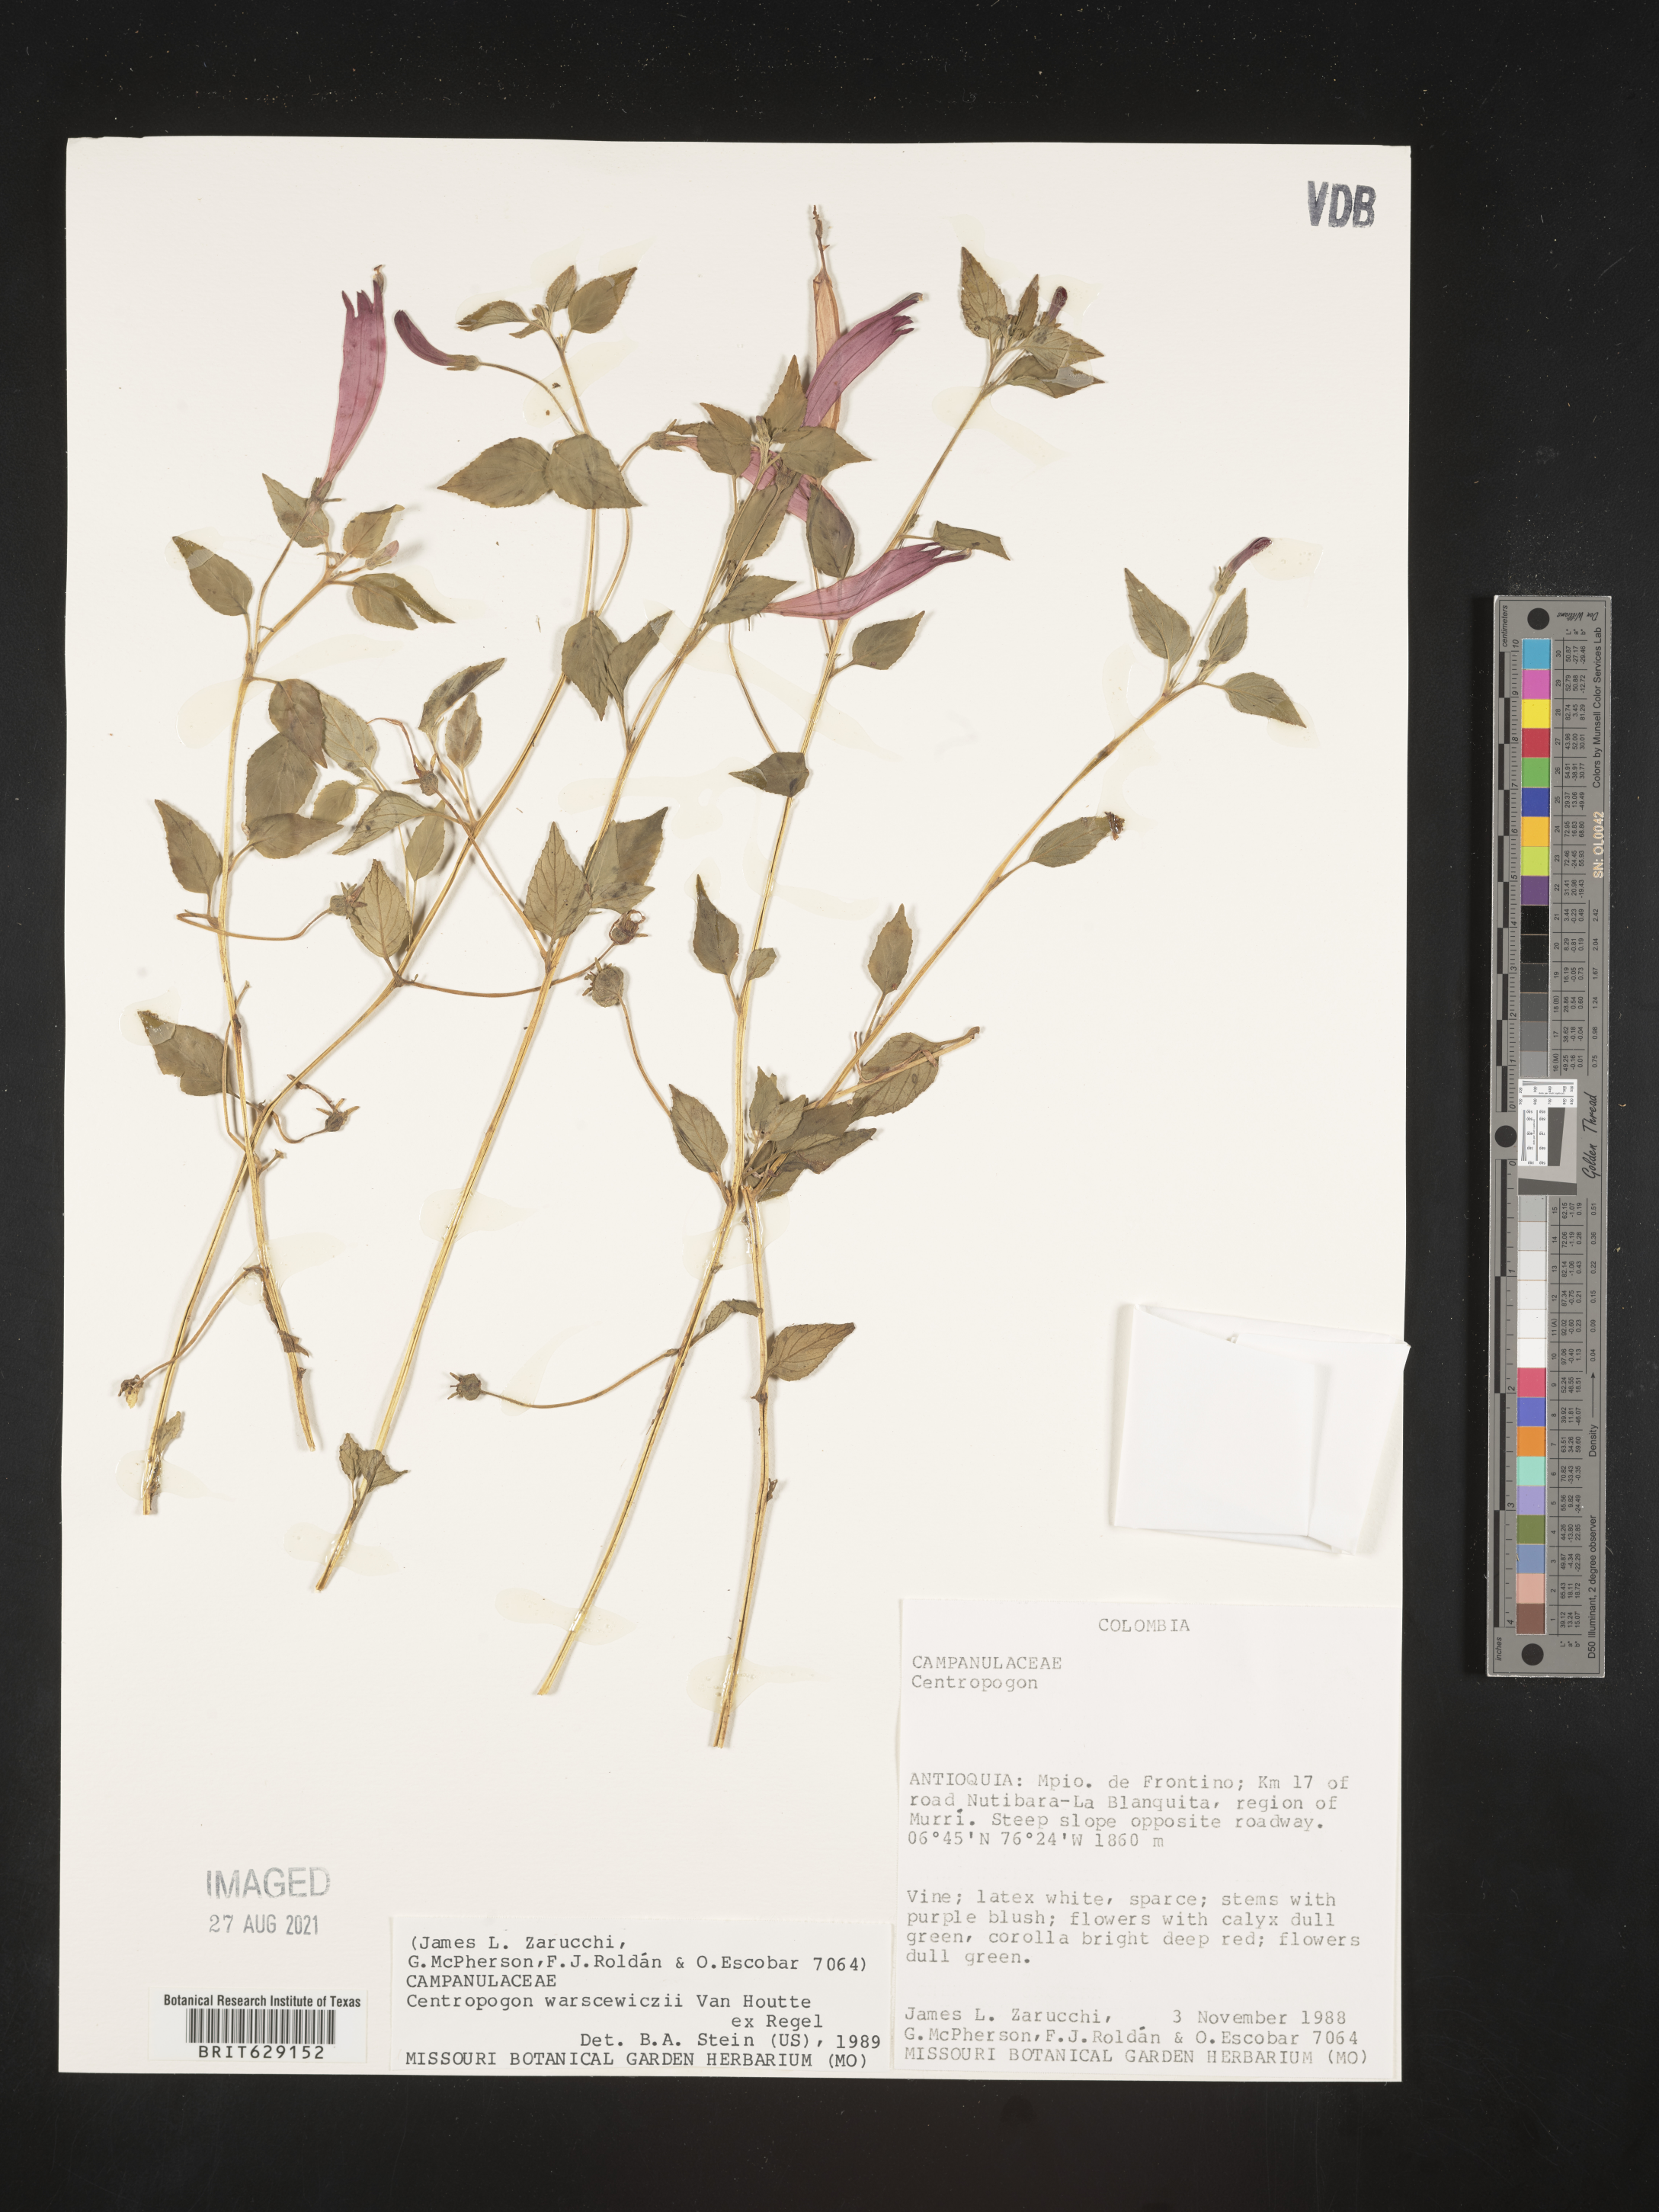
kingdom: Plantae
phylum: Tracheophyta
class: Magnoliopsida
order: Asterales
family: Campanulaceae
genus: Centropogon
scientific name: Centropogon warscewiczii
